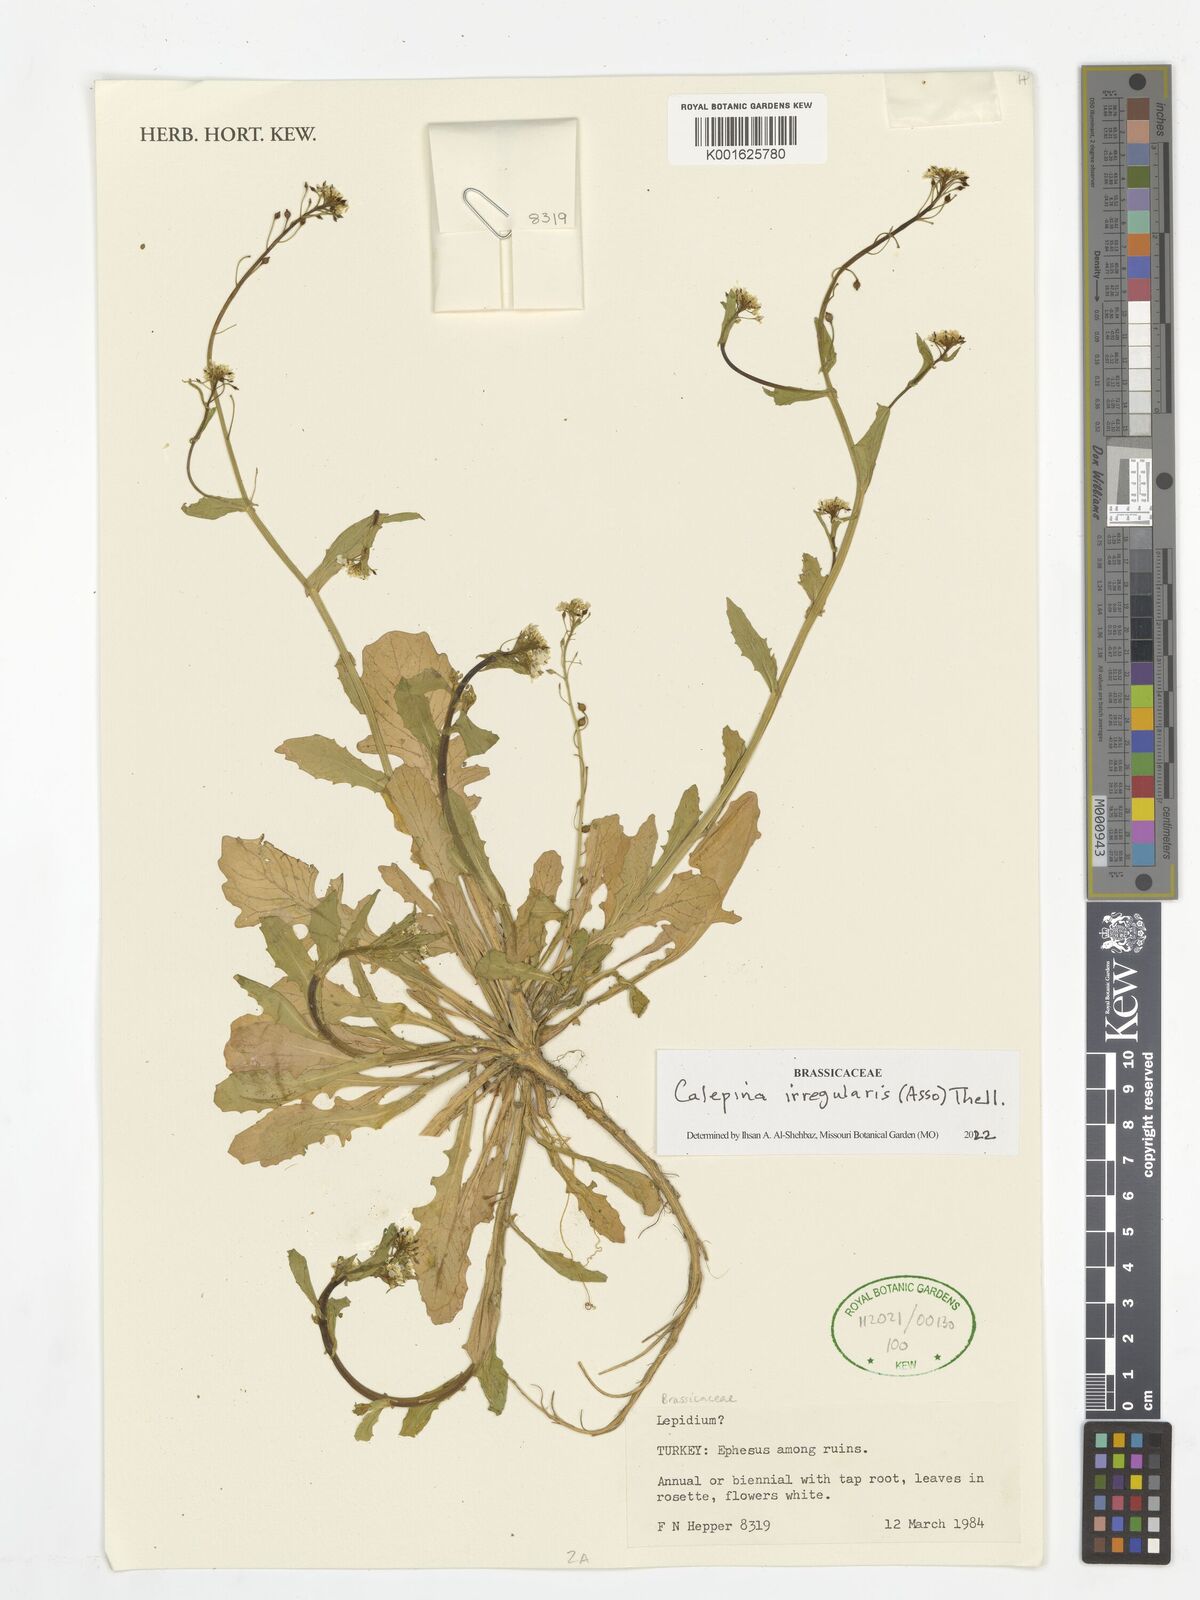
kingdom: Plantae
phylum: Tracheophyta
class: Magnoliopsida
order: Brassicales
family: Brassicaceae
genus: Calepina
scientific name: Calepina irregularis
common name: White ballmustard
